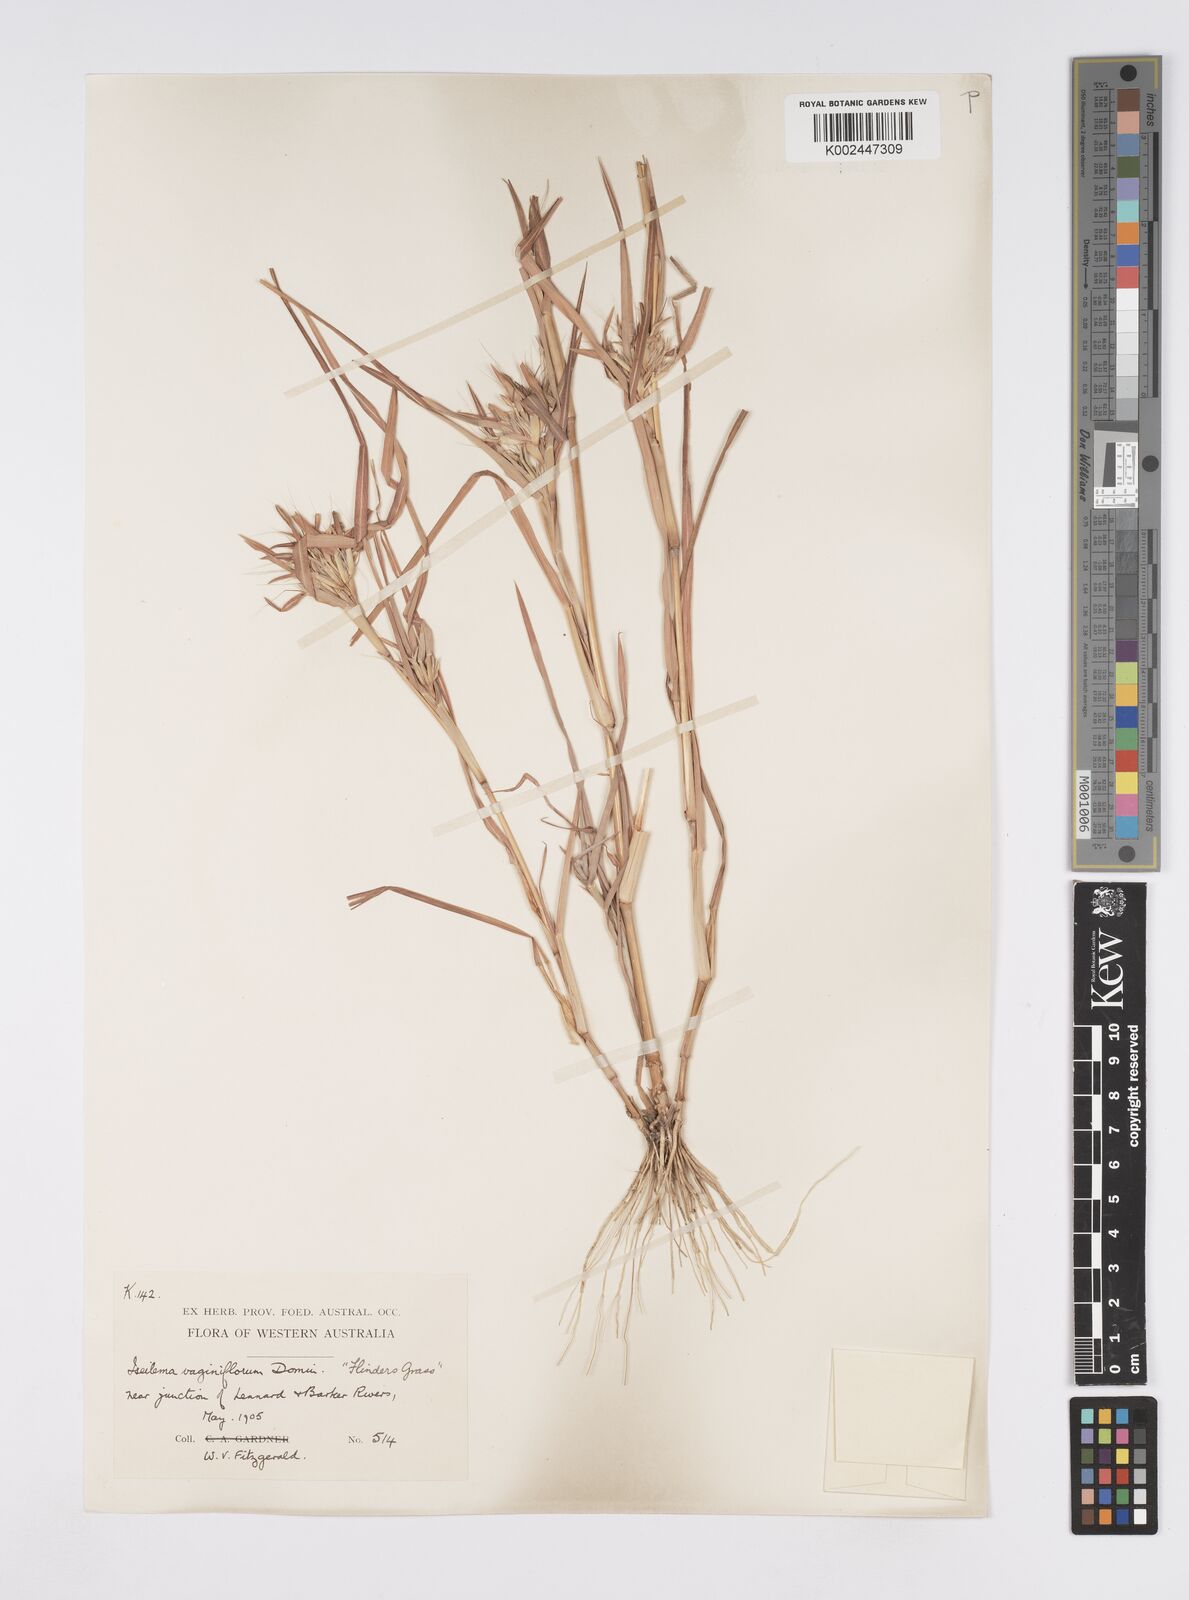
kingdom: Plantae
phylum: Tracheophyta
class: Liliopsida
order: Poales
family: Poaceae
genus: Iseilema
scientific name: Iseilema vaginiflorum
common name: Red flinders grass
